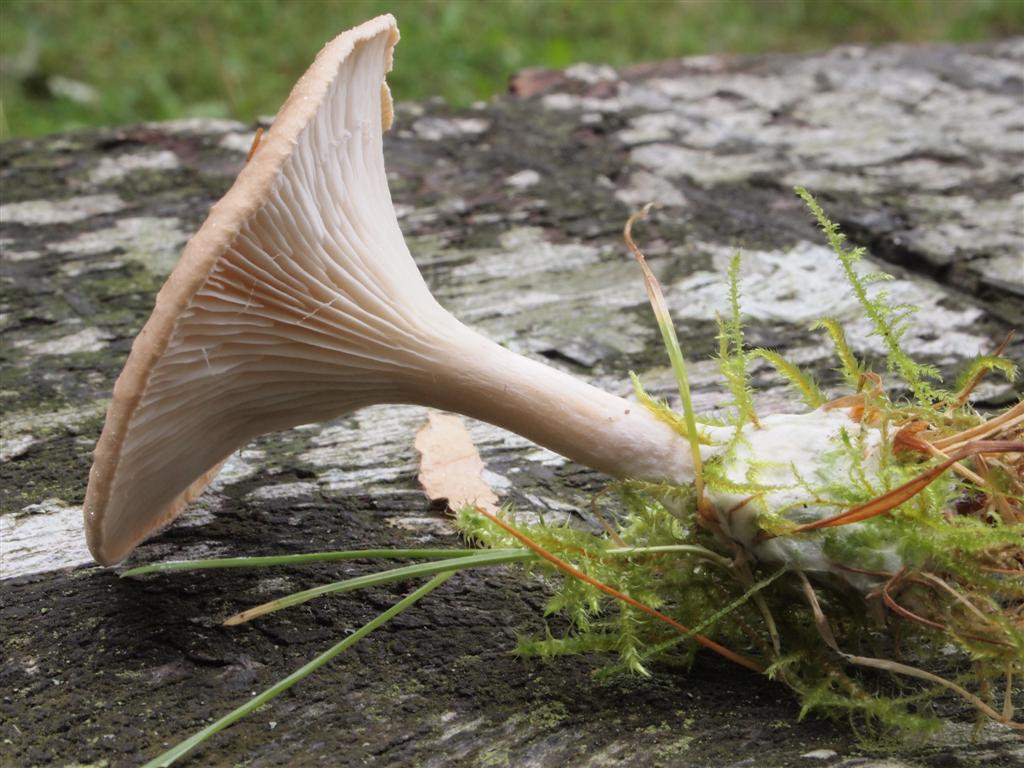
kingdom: Fungi
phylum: Basidiomycota
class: Agaricomycetes
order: Agaricales
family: Tricholomataceae
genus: Infundibulicybe
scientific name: Infundibulicybe gibba
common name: almindelig tragthat
